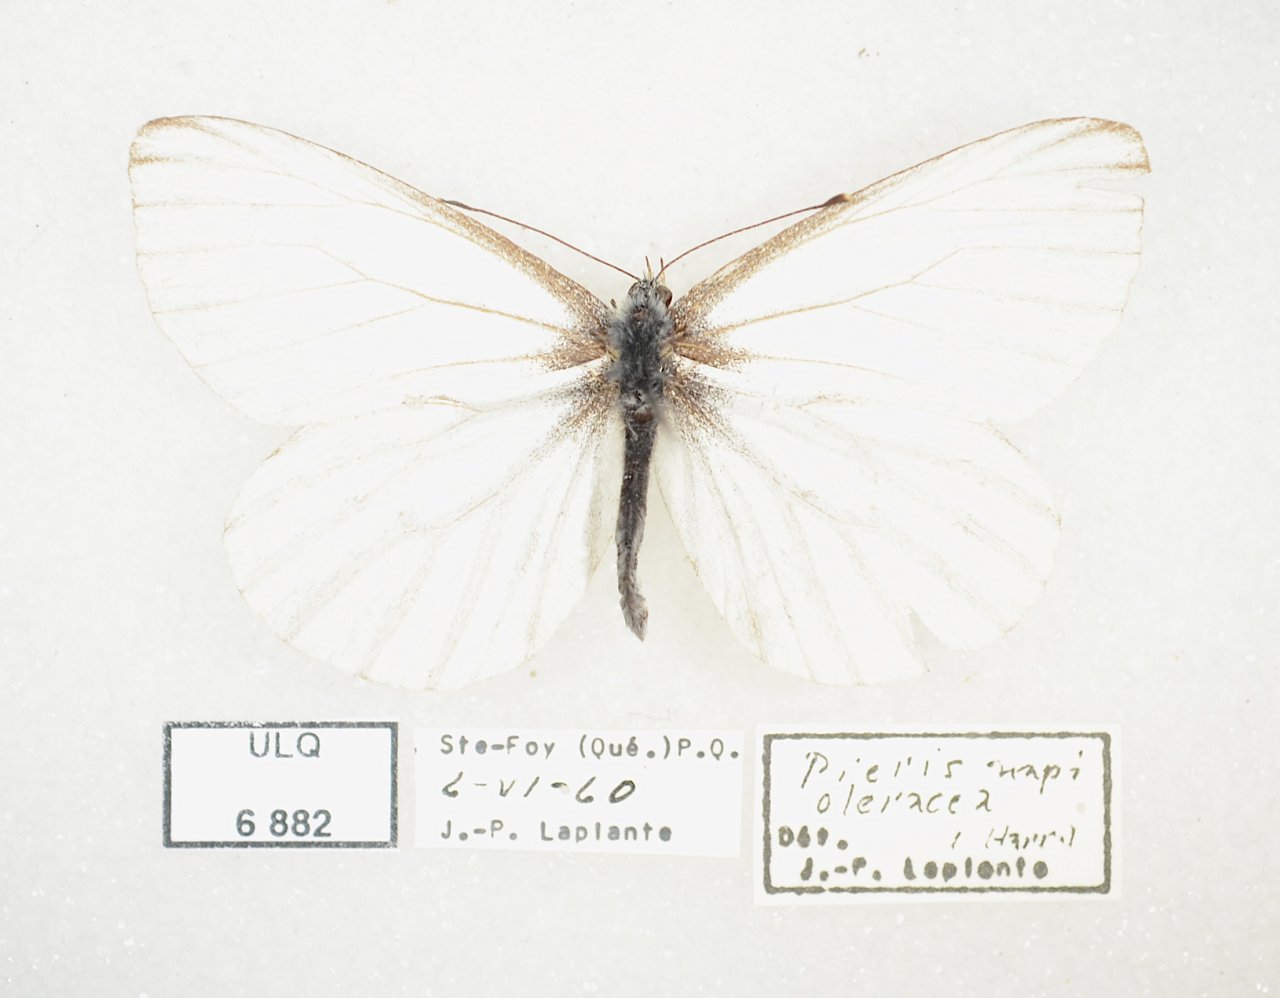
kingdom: Animalia
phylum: Arthropoda
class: Insecta
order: Lepidoptera
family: Pieridae
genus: Pieris
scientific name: Pieris oleracea
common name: Mustard White
